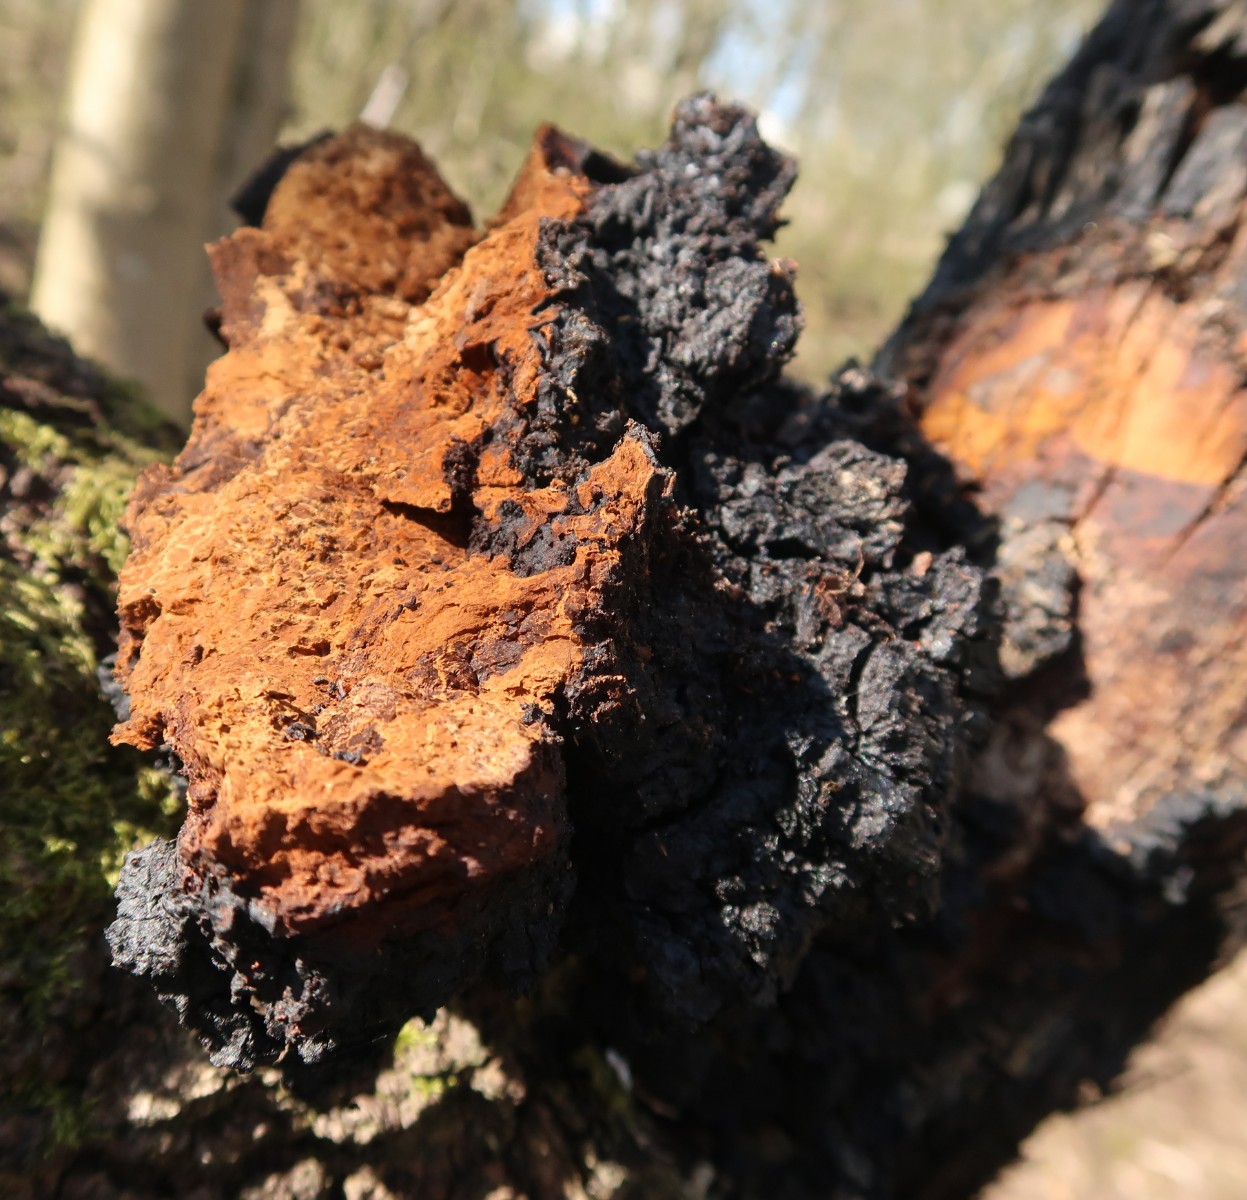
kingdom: Fungi
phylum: Basidiomycota
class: Agaricomycetes
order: Hymenochaetales
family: Hymenochaetaceae
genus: Inonotus
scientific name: Inonotus obliquus
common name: birke-spejlporesvamp
